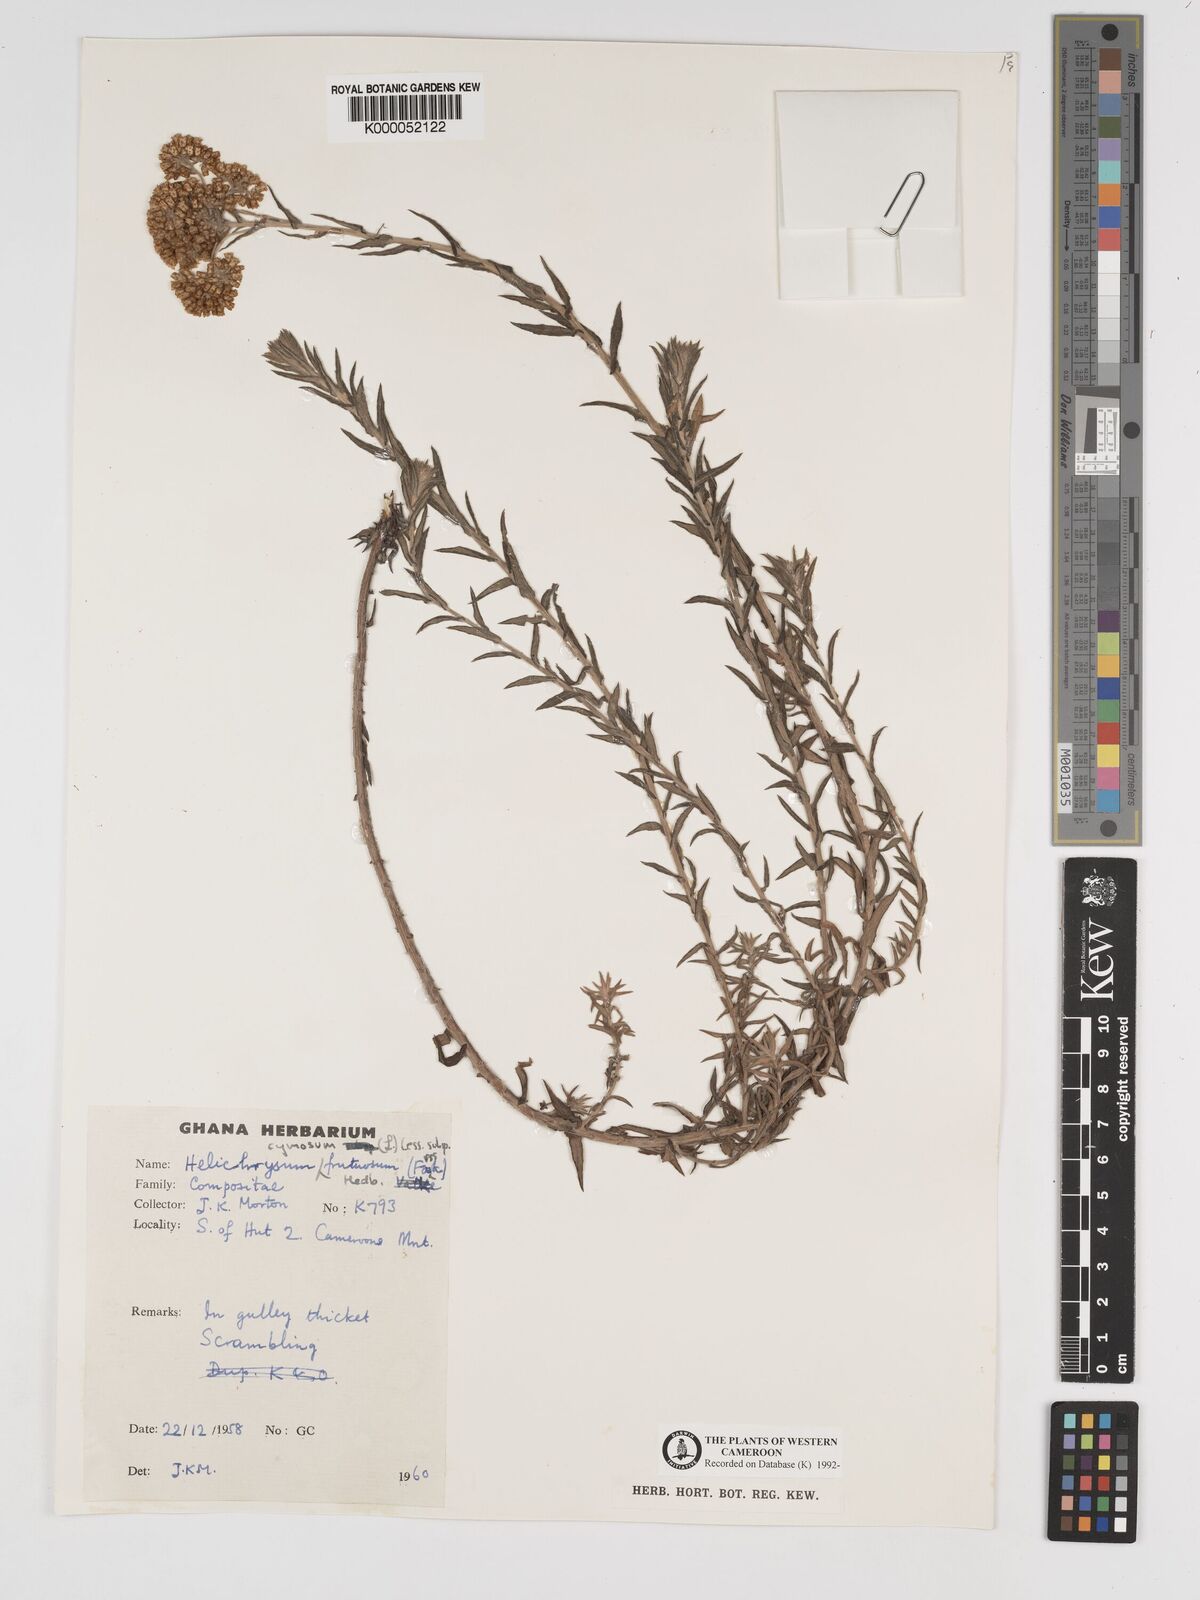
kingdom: Plantae
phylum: Tracheophyta
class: Magnoliopsida
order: Asterales
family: Asteraceae
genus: Helichrysum
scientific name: Helichrysum forskahlii
